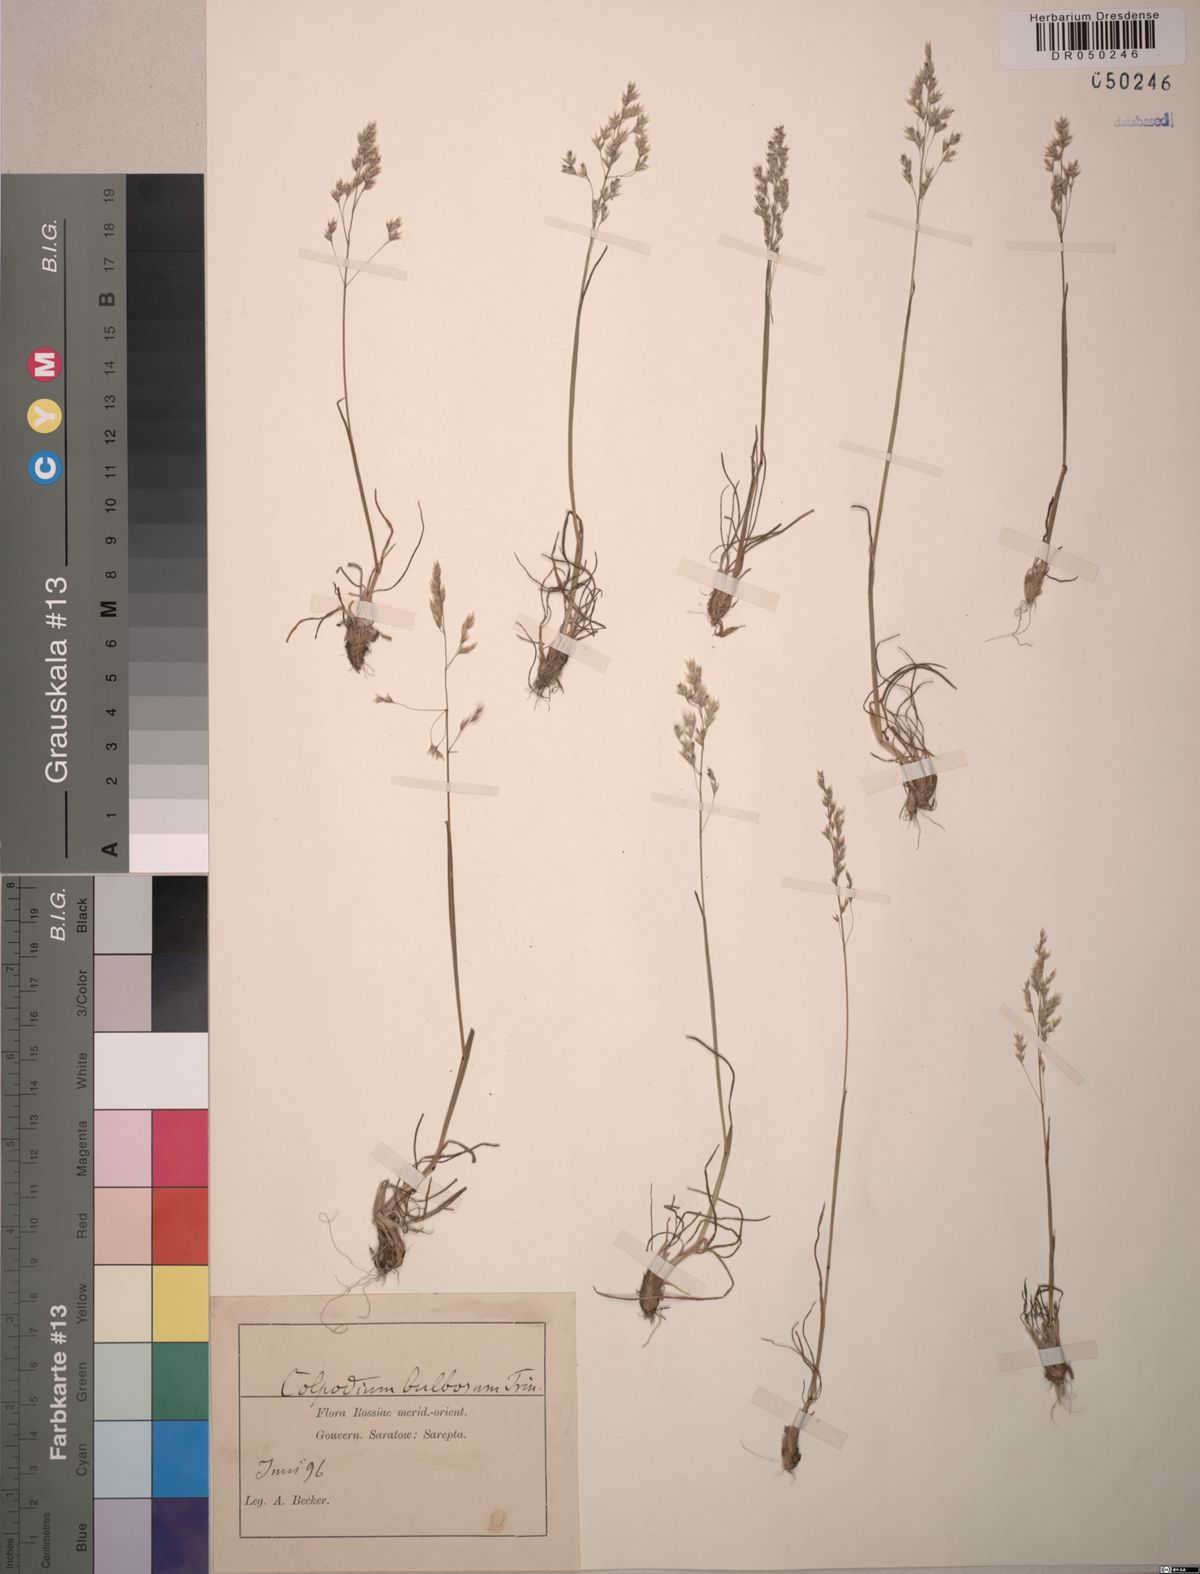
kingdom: Plantae
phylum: Tracheophyta
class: Liliopsida
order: Poales
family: Poaceae
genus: Catabrosella
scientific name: Catabrosella humilis
